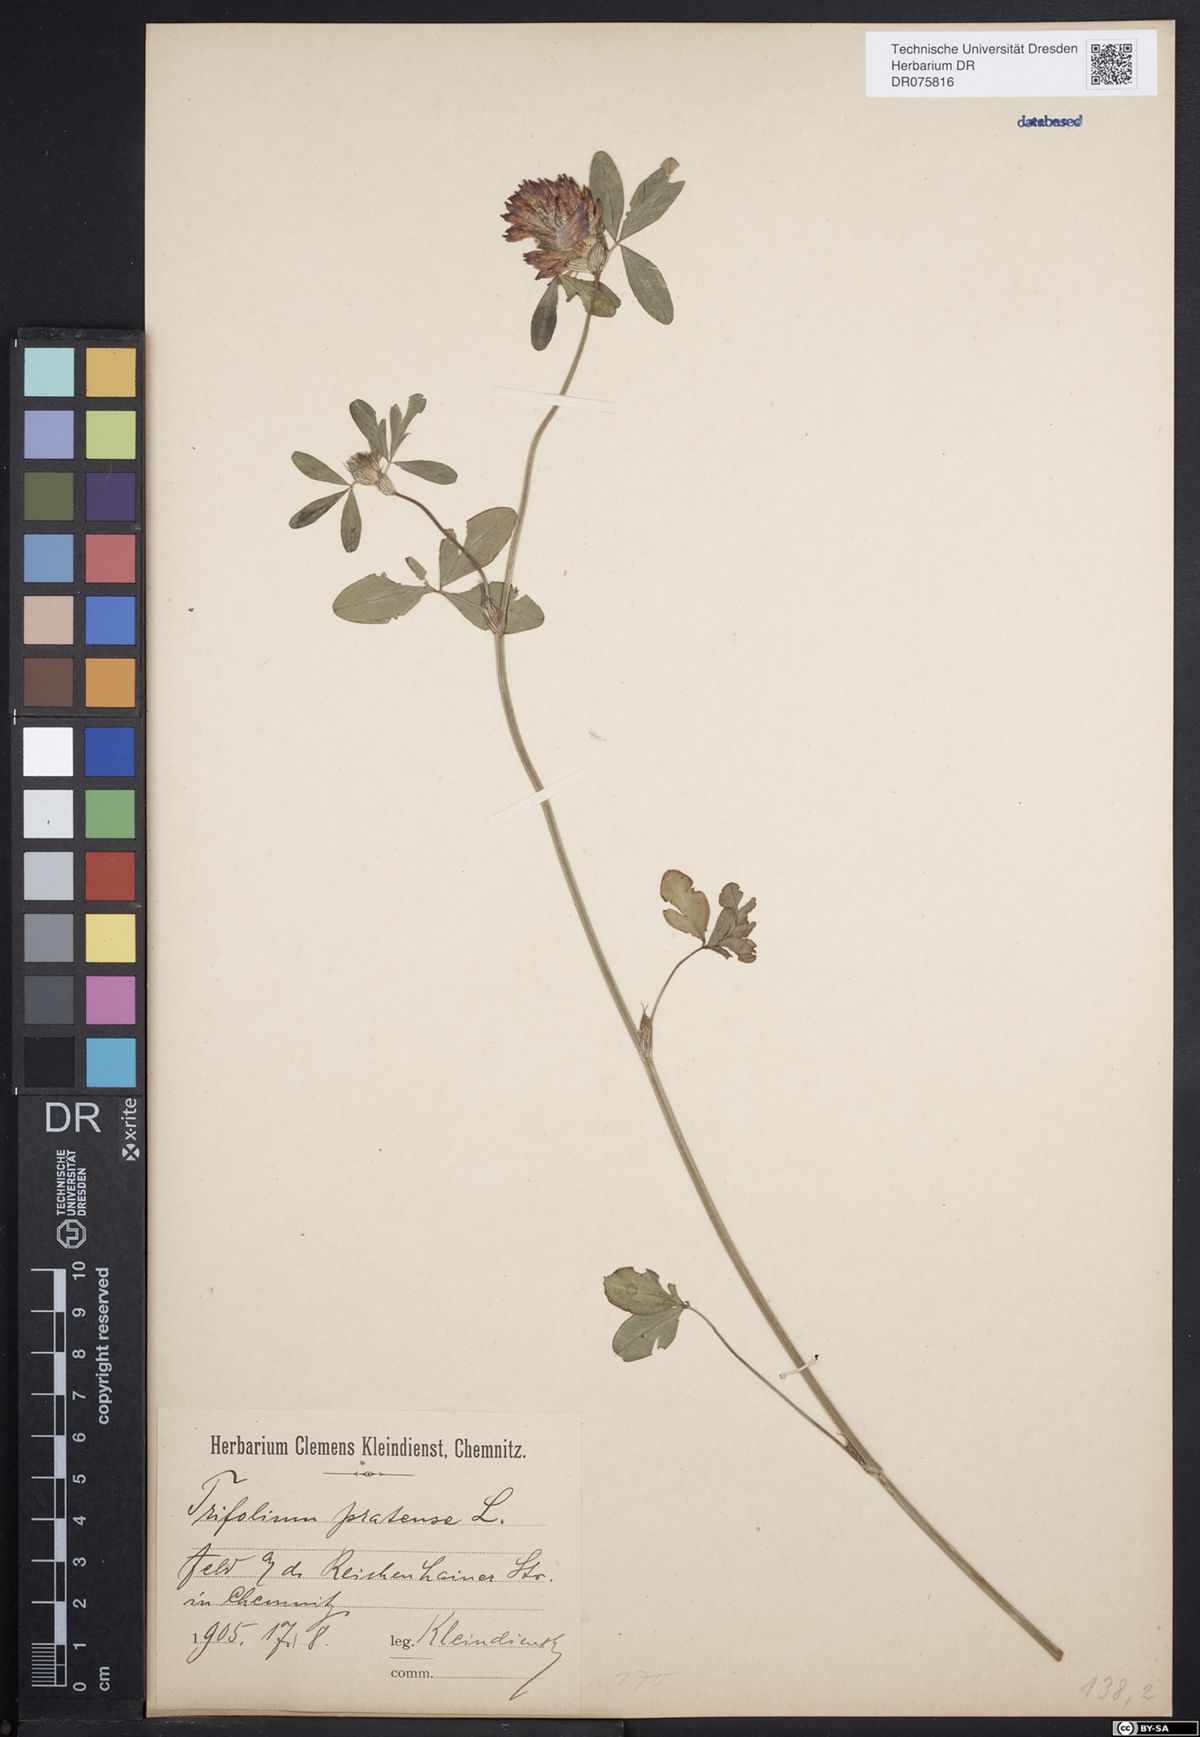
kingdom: Plantae
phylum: Tracheophyta
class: Magnoliopsida
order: Fabales
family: Fabaceae
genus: Trifolium
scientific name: Trifolium pratense
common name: Red clover
